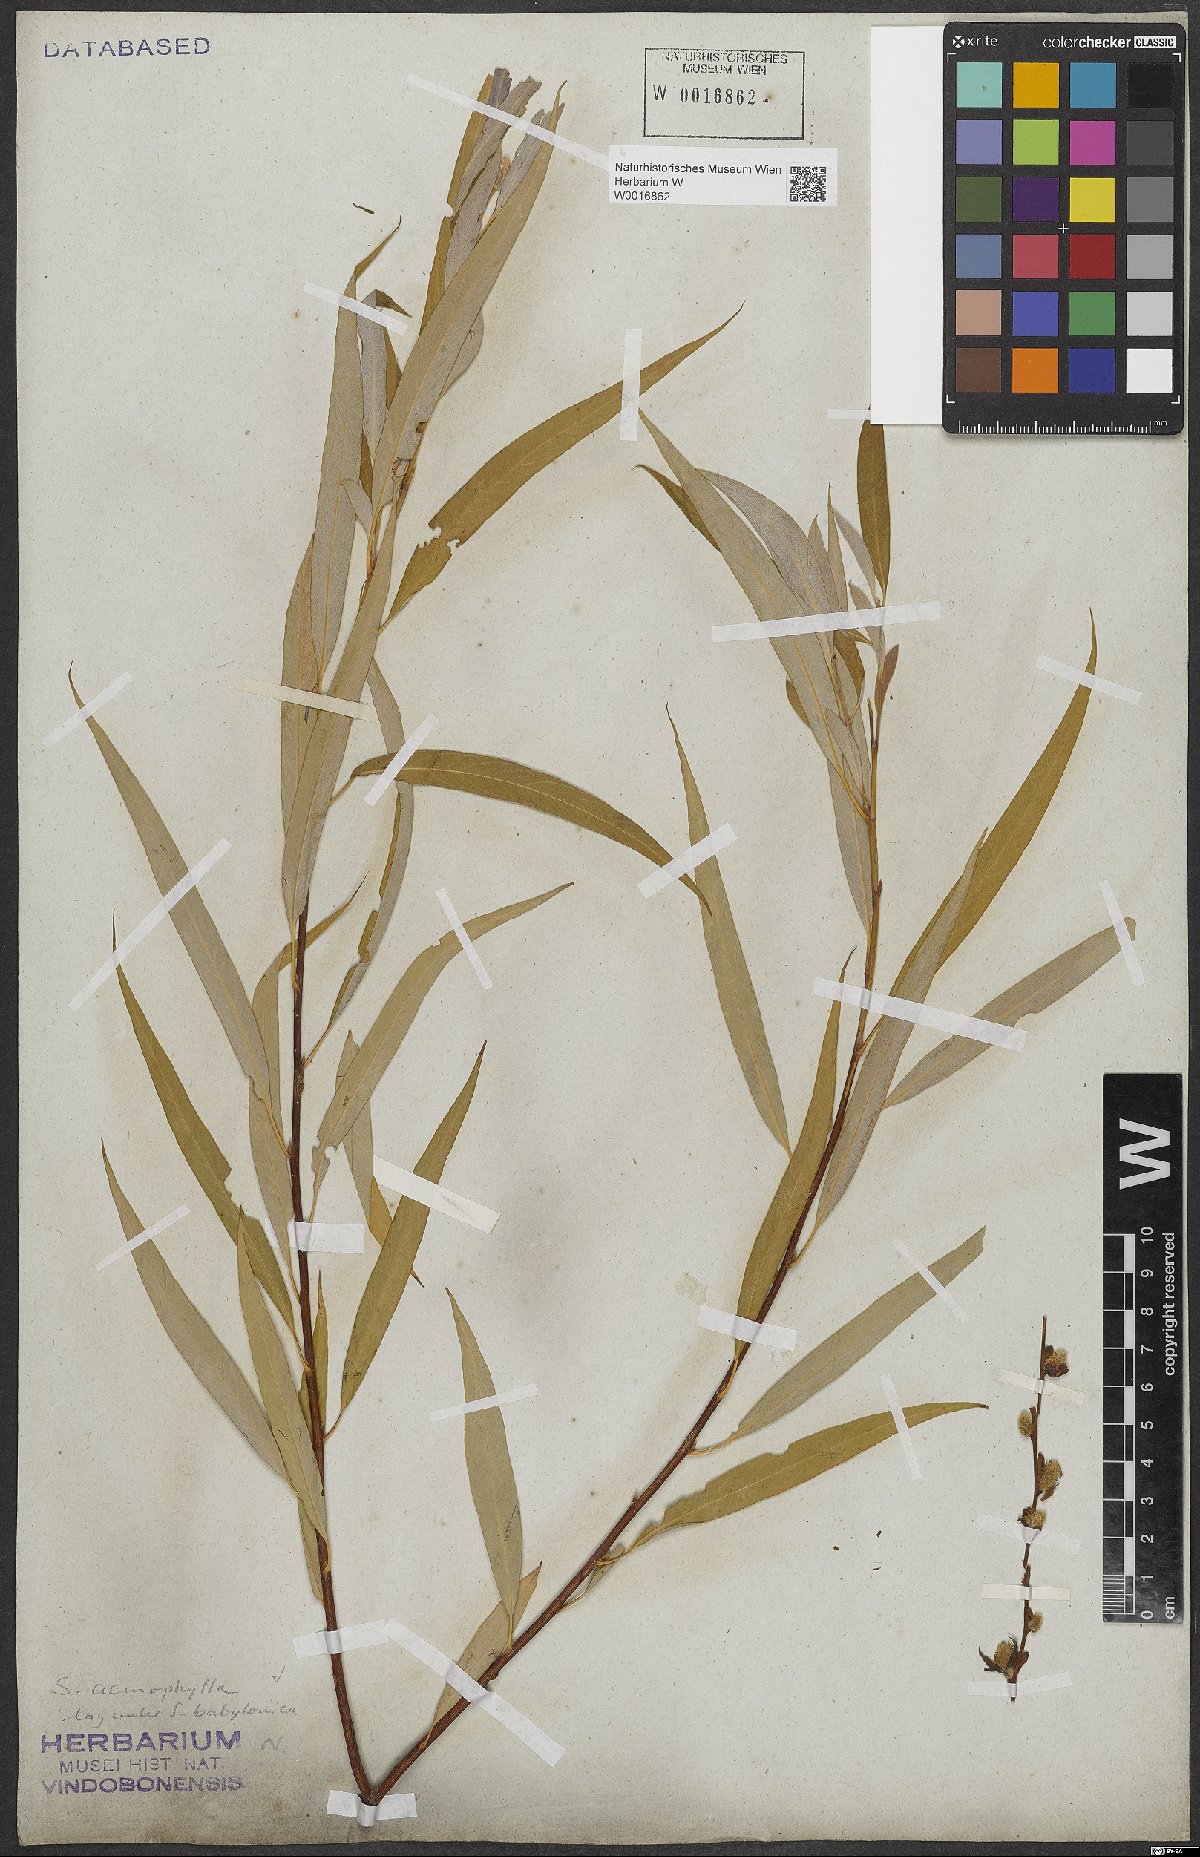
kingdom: Plantae
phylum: Tracheophyta
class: Magnoliopsida
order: Malpighiales
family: Salicaceae
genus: Salix
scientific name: Salix acmophylla
